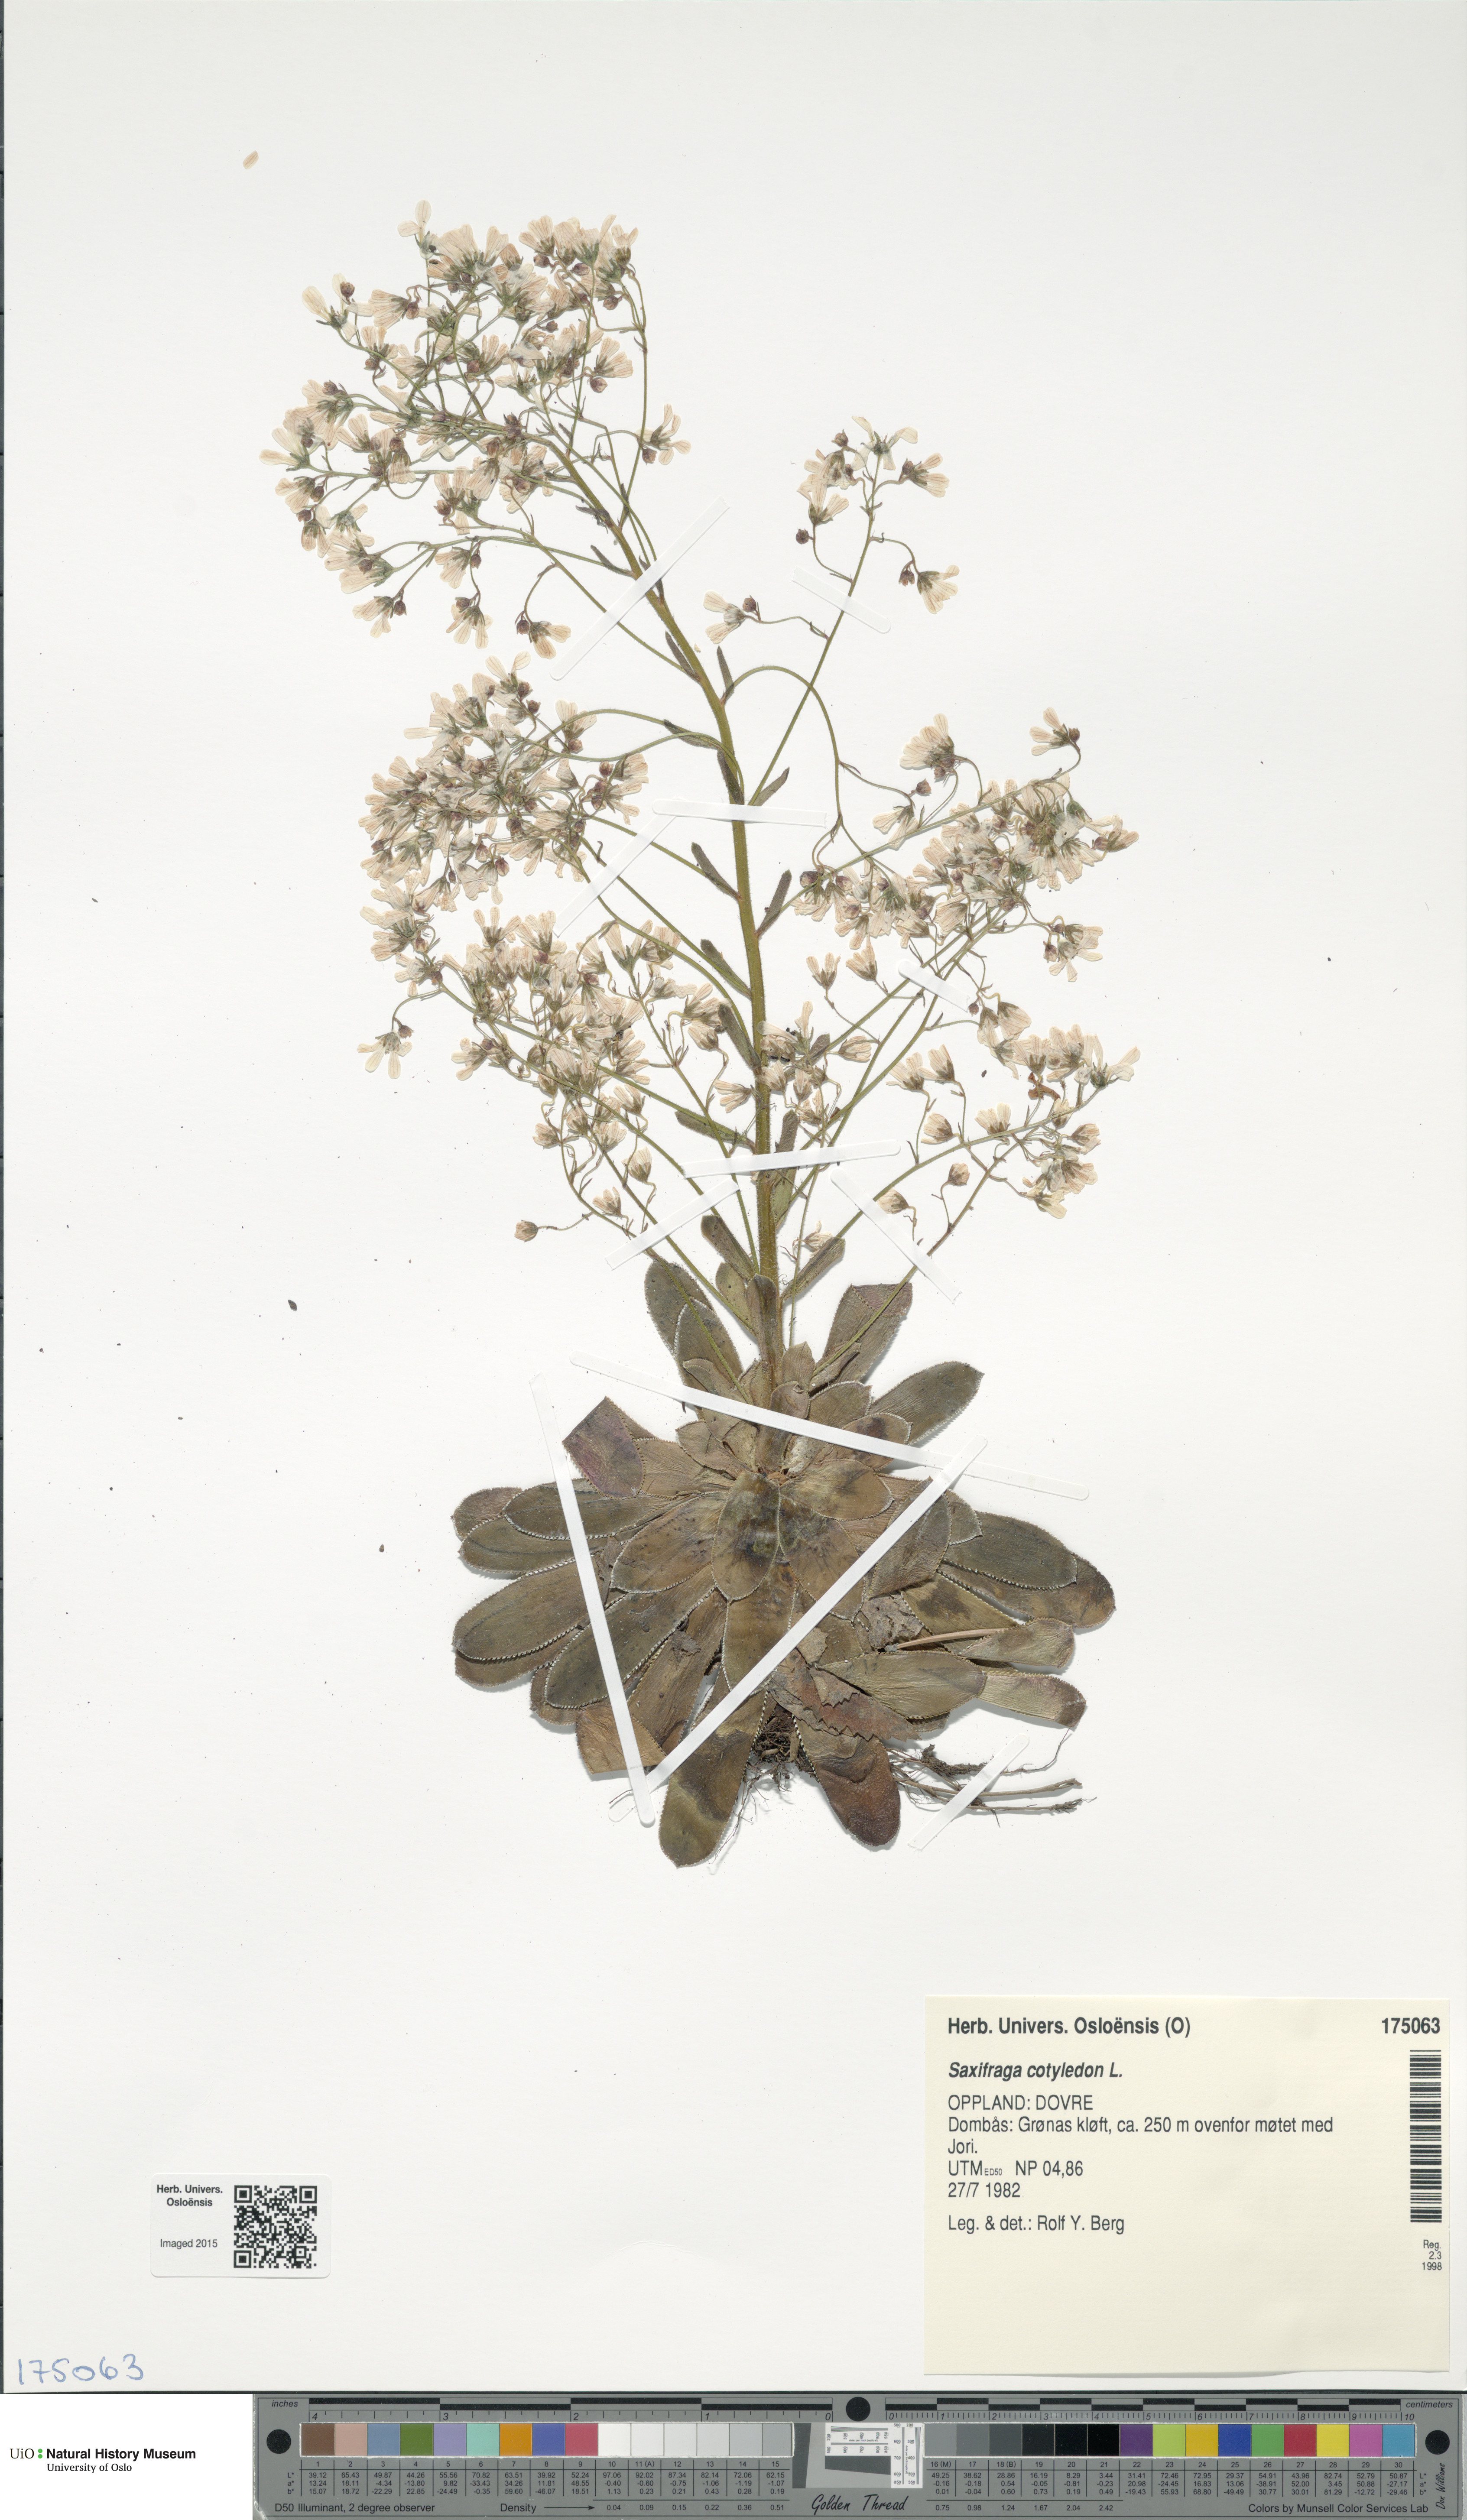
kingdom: Plantae
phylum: Tracheophyta
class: Magnoliopsida
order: Saxifragales
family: Saxifragaceae
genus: Saxifraga
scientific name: Saxifraga cotyledon
